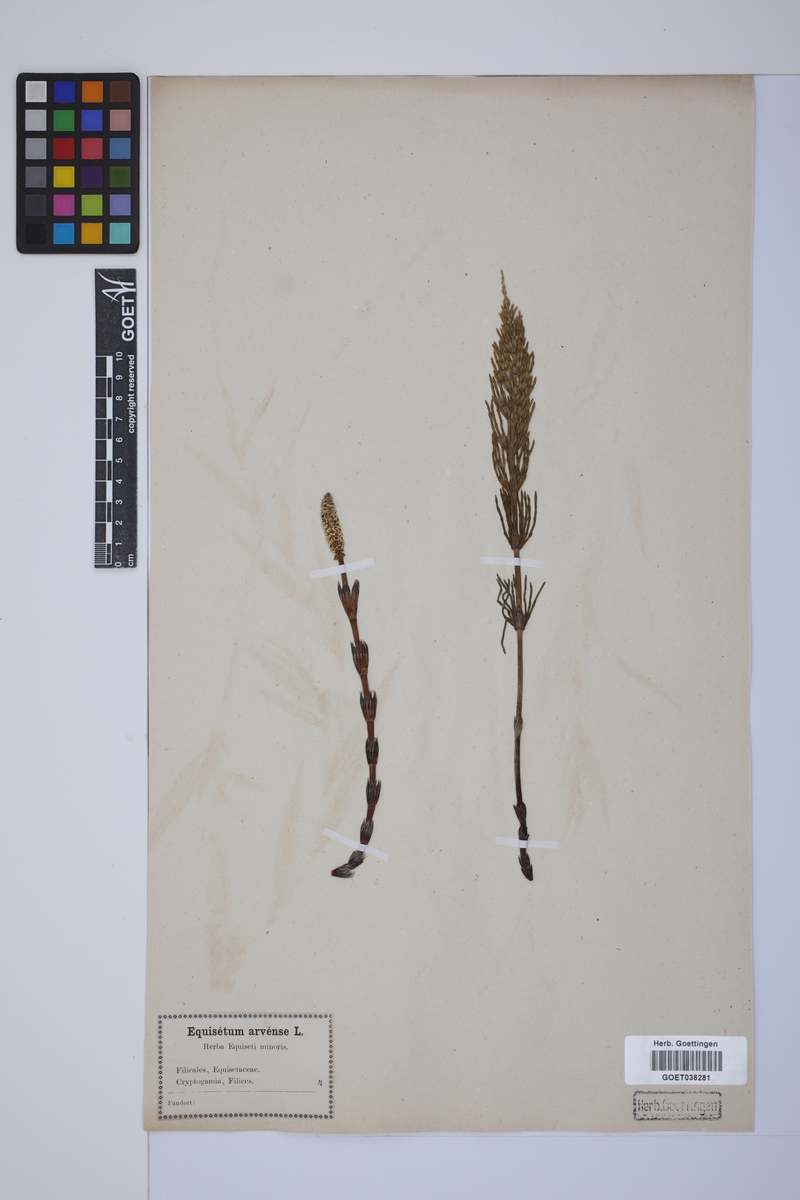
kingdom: Plantae
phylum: Tracheophyta
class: Polypodiopsida
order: Equisetales
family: Equisetaceae
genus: Equisetum
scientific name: Equisetum arvense
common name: Field horsetail
